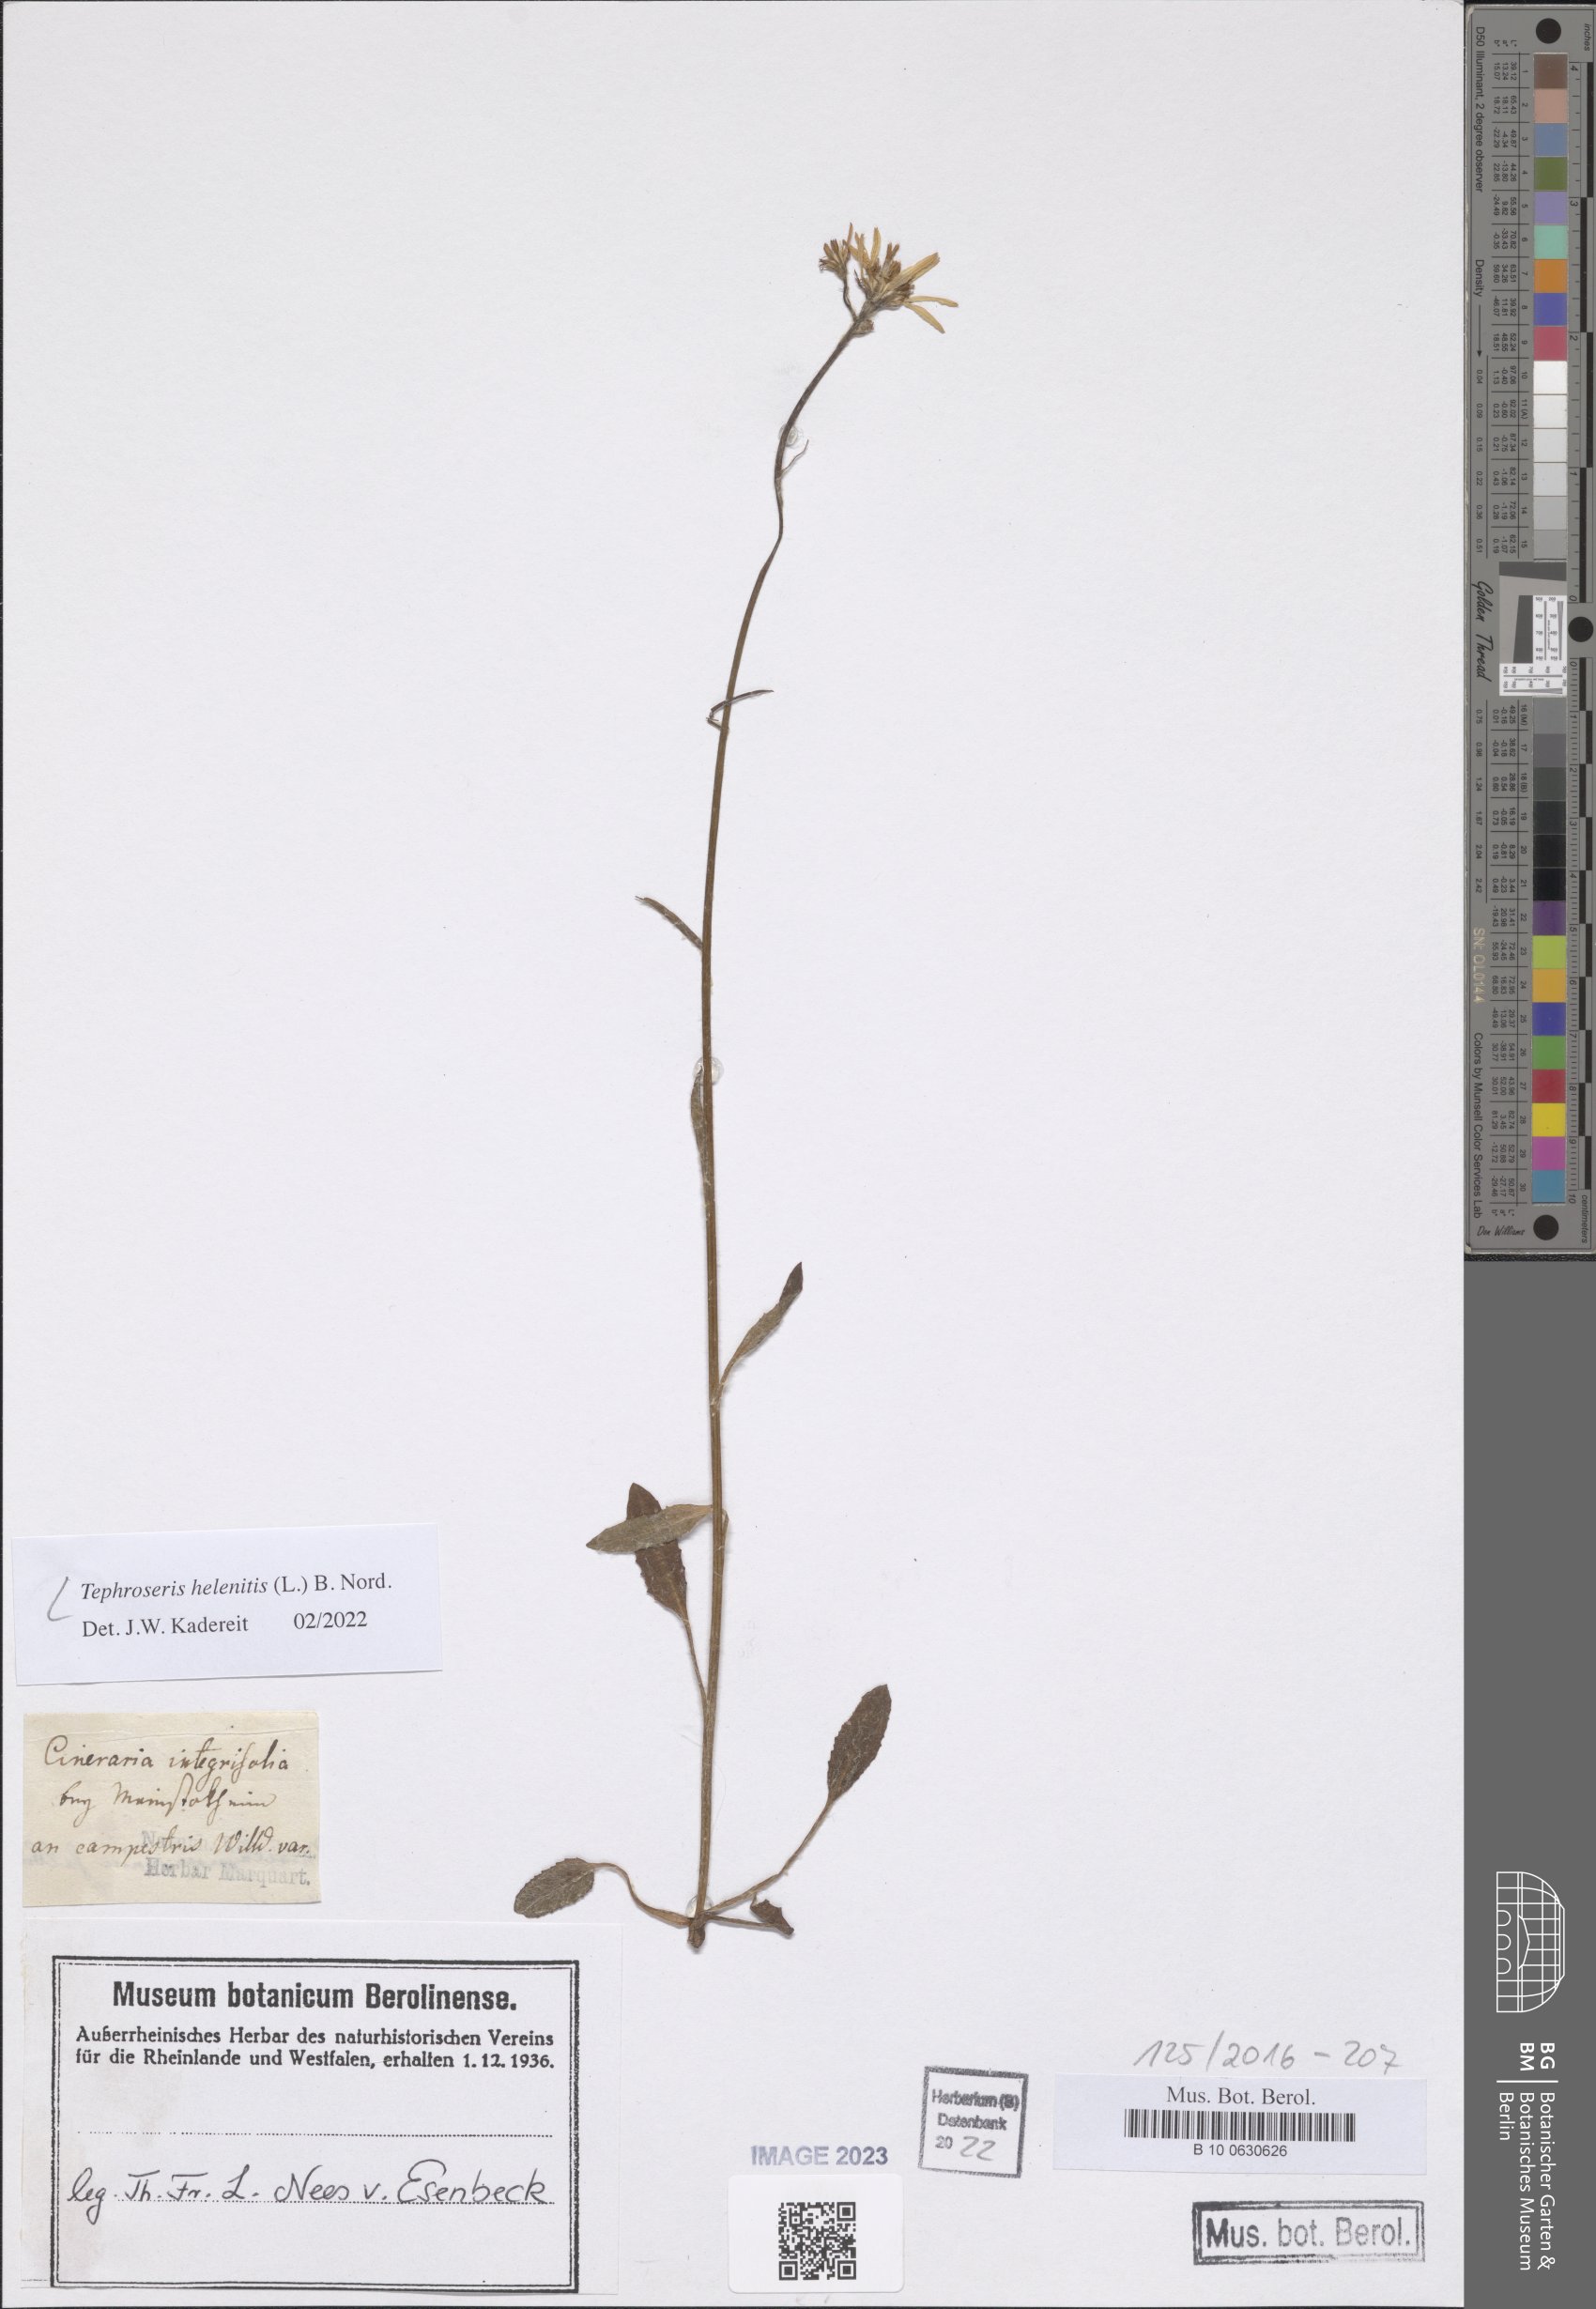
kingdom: Plantae
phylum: Tracheophyta
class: Magnoliopsida
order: Asterales
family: Asteraceae
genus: Tephroseris
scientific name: Tephroseris helenitis
